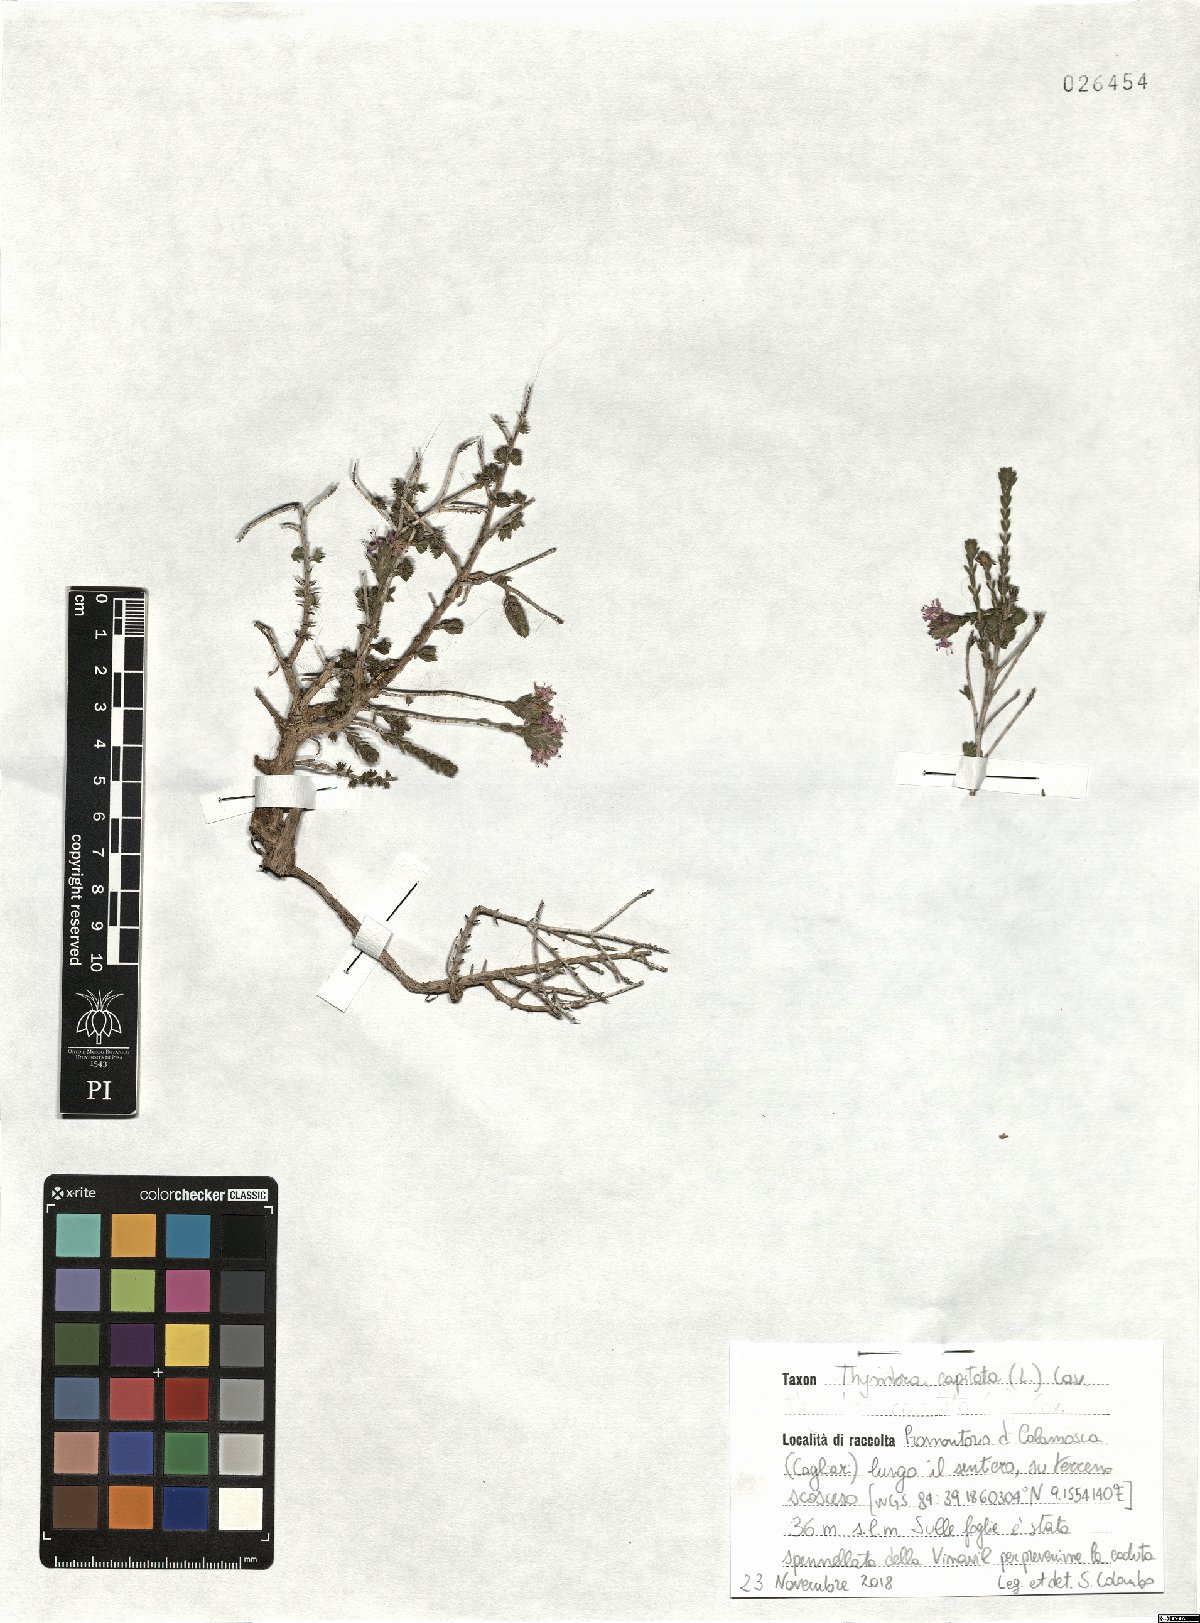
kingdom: Plantae
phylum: Tracheophyta
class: Magnoliopsida
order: Lamiales
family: Lamiaceae
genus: Thymbra
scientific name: Thymbra capitata
